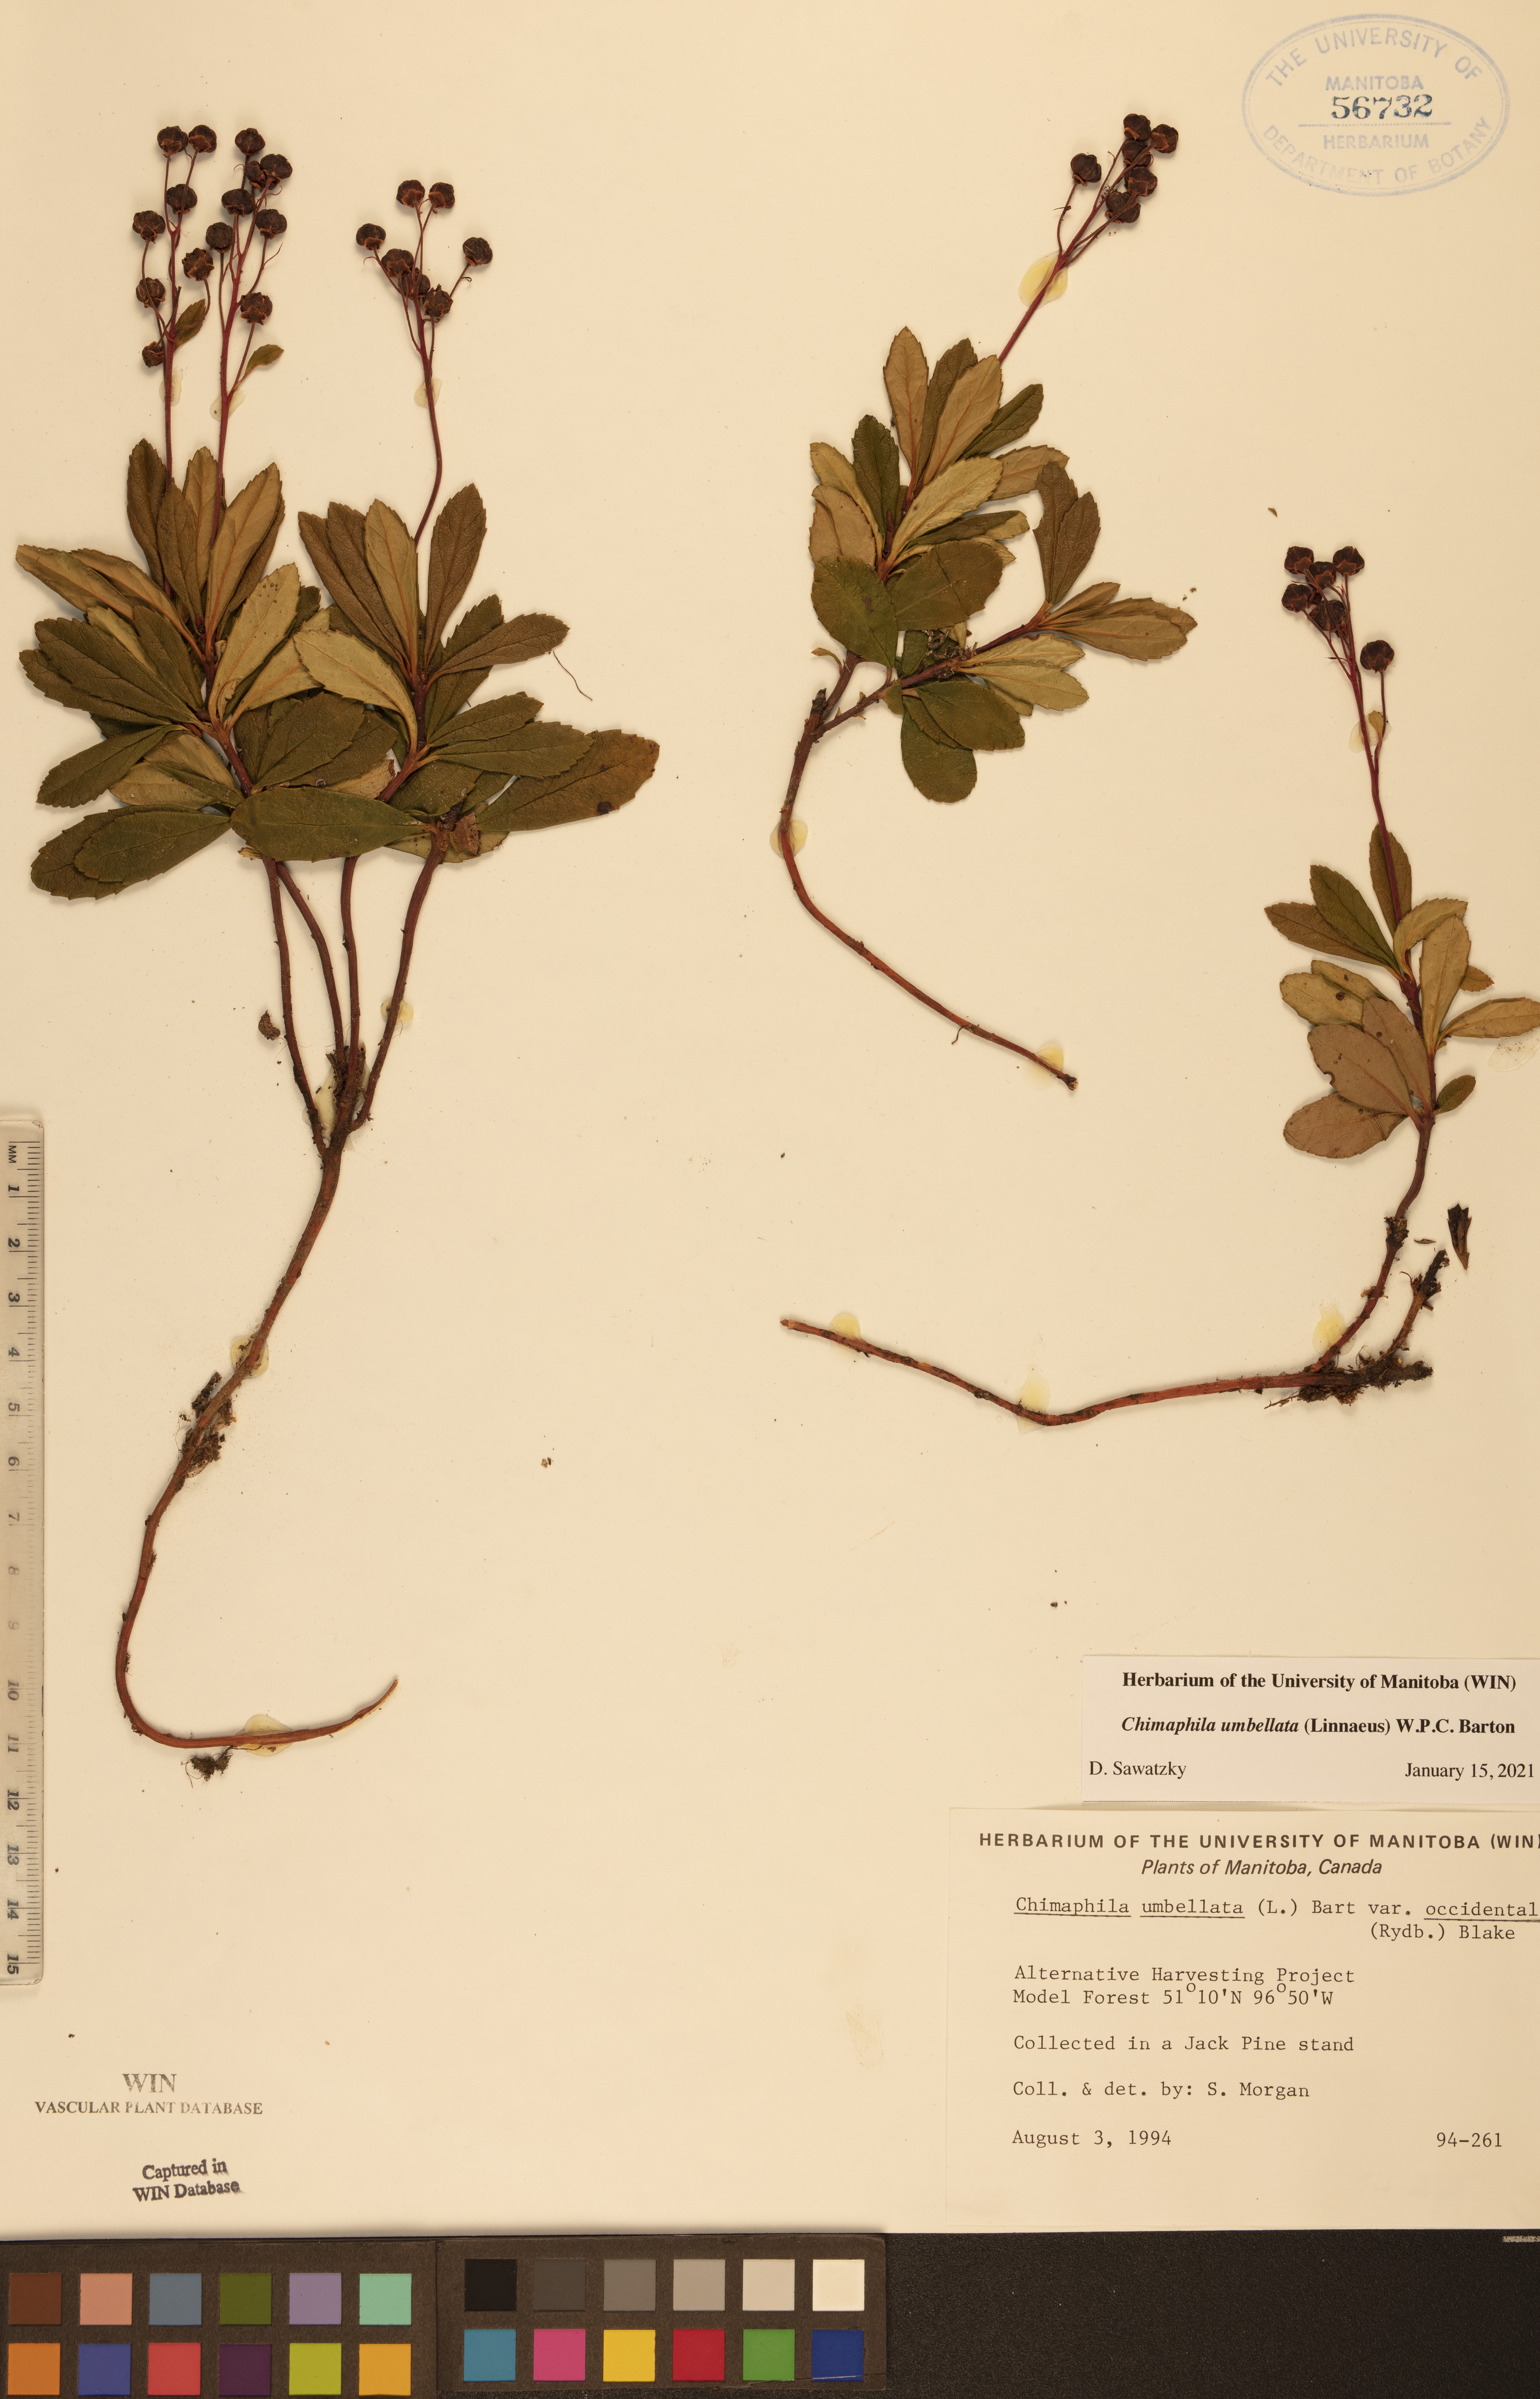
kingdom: Plantae
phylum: Tracheophyta
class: Magnoliopsida
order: Ericales
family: Ericaceae
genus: Chimaphila
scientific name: Chimaphila umbellata
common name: Pipsissewa
